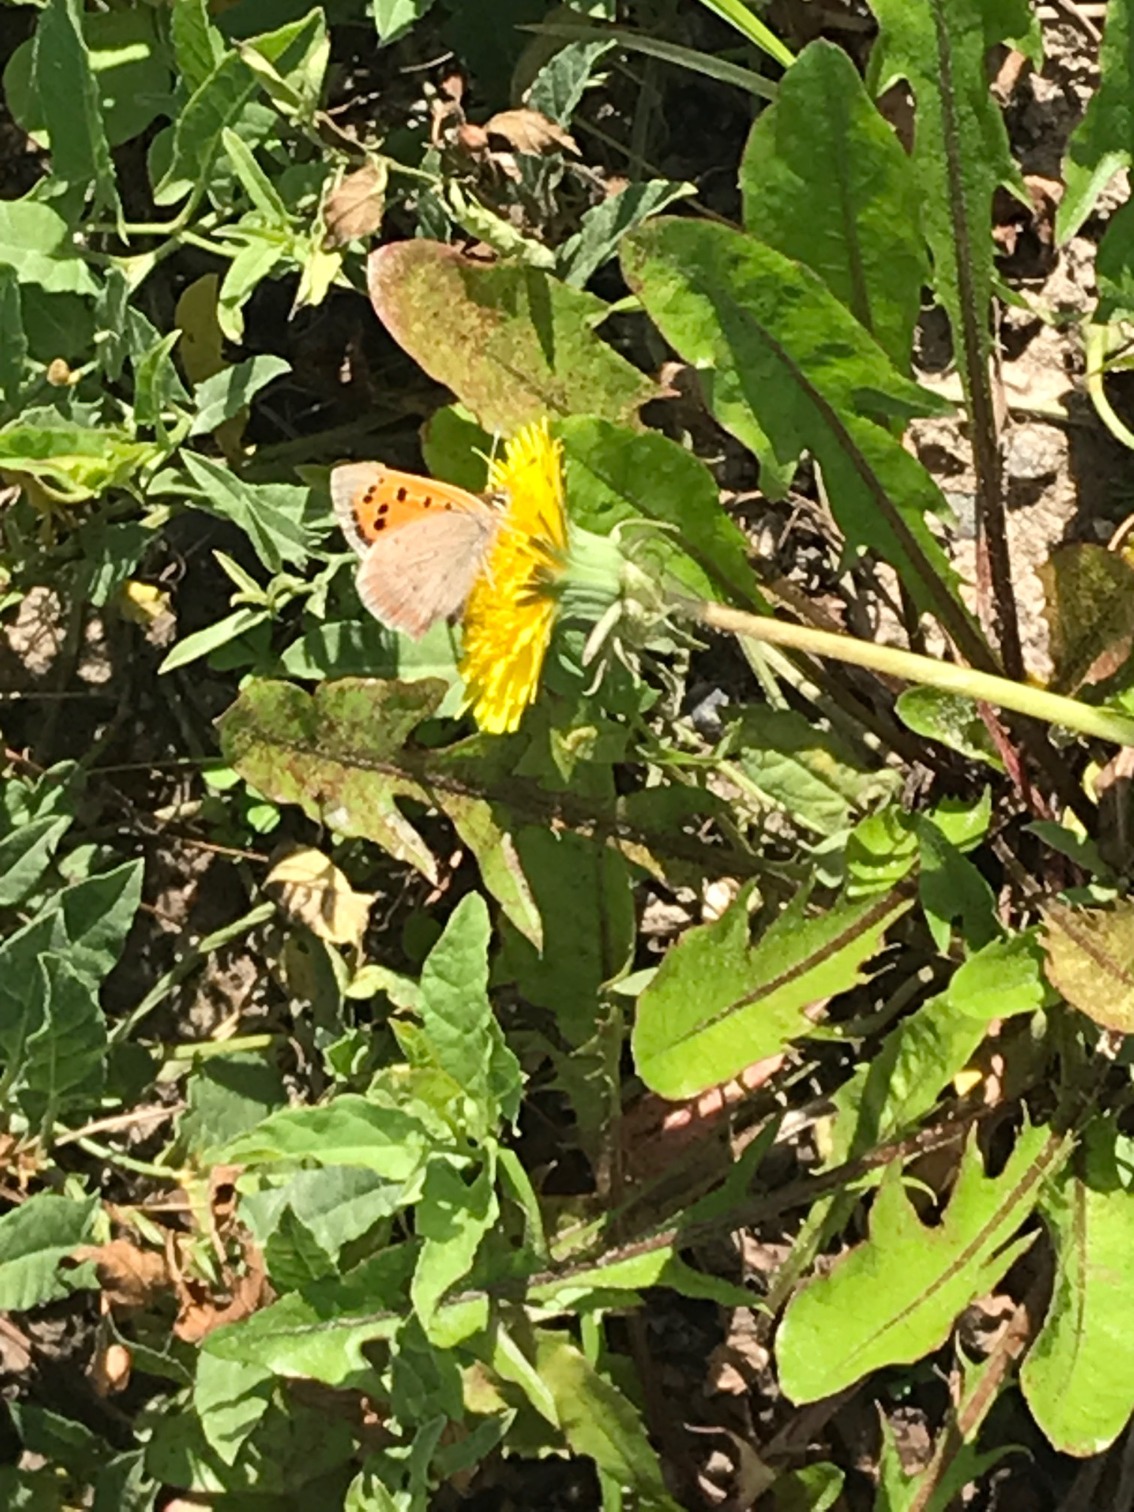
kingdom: Animalia
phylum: Arthropoda
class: Insecta
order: Lepidoptera
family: Lycaenidae
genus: Lycaena
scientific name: Lycaena phlaeas
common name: Lille ildfugl
